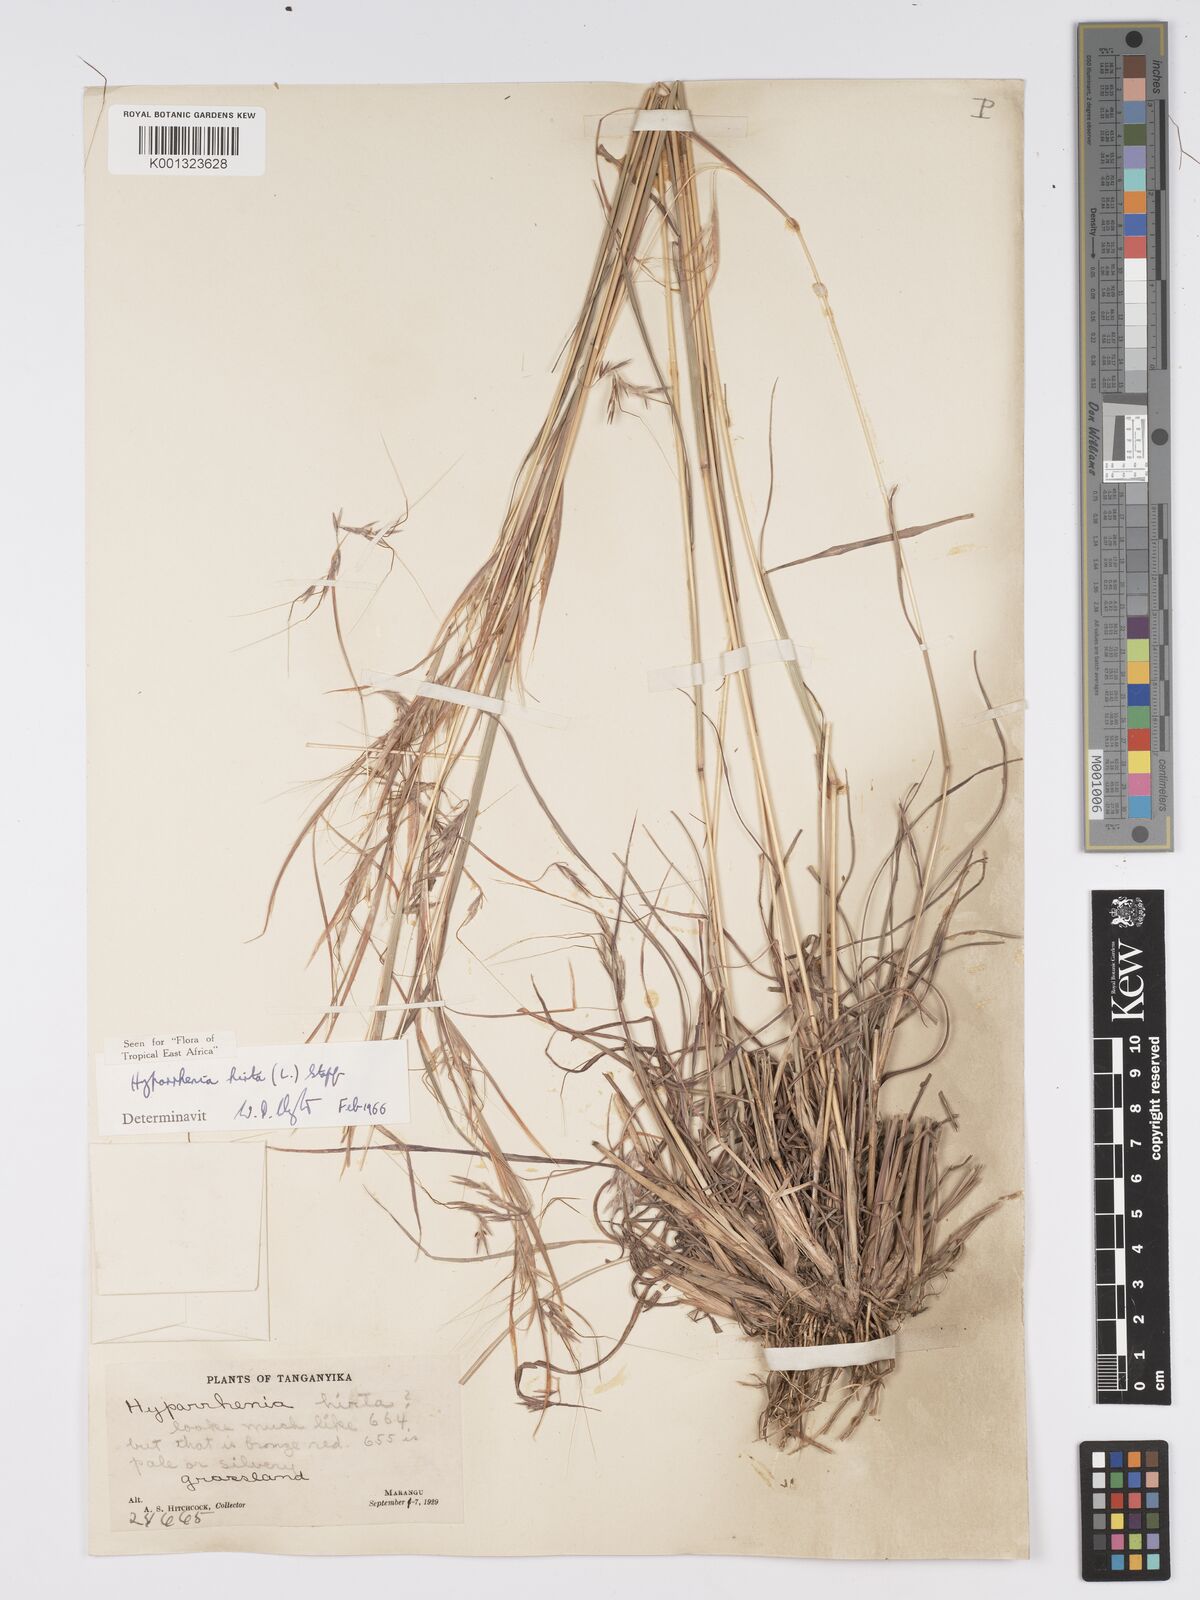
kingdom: Plantae
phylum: Tracheophyta
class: Liliopsida
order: Poales
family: Poaceae
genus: Hyparrhenia
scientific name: Hyparrhenia hirta
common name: Thatching grass
